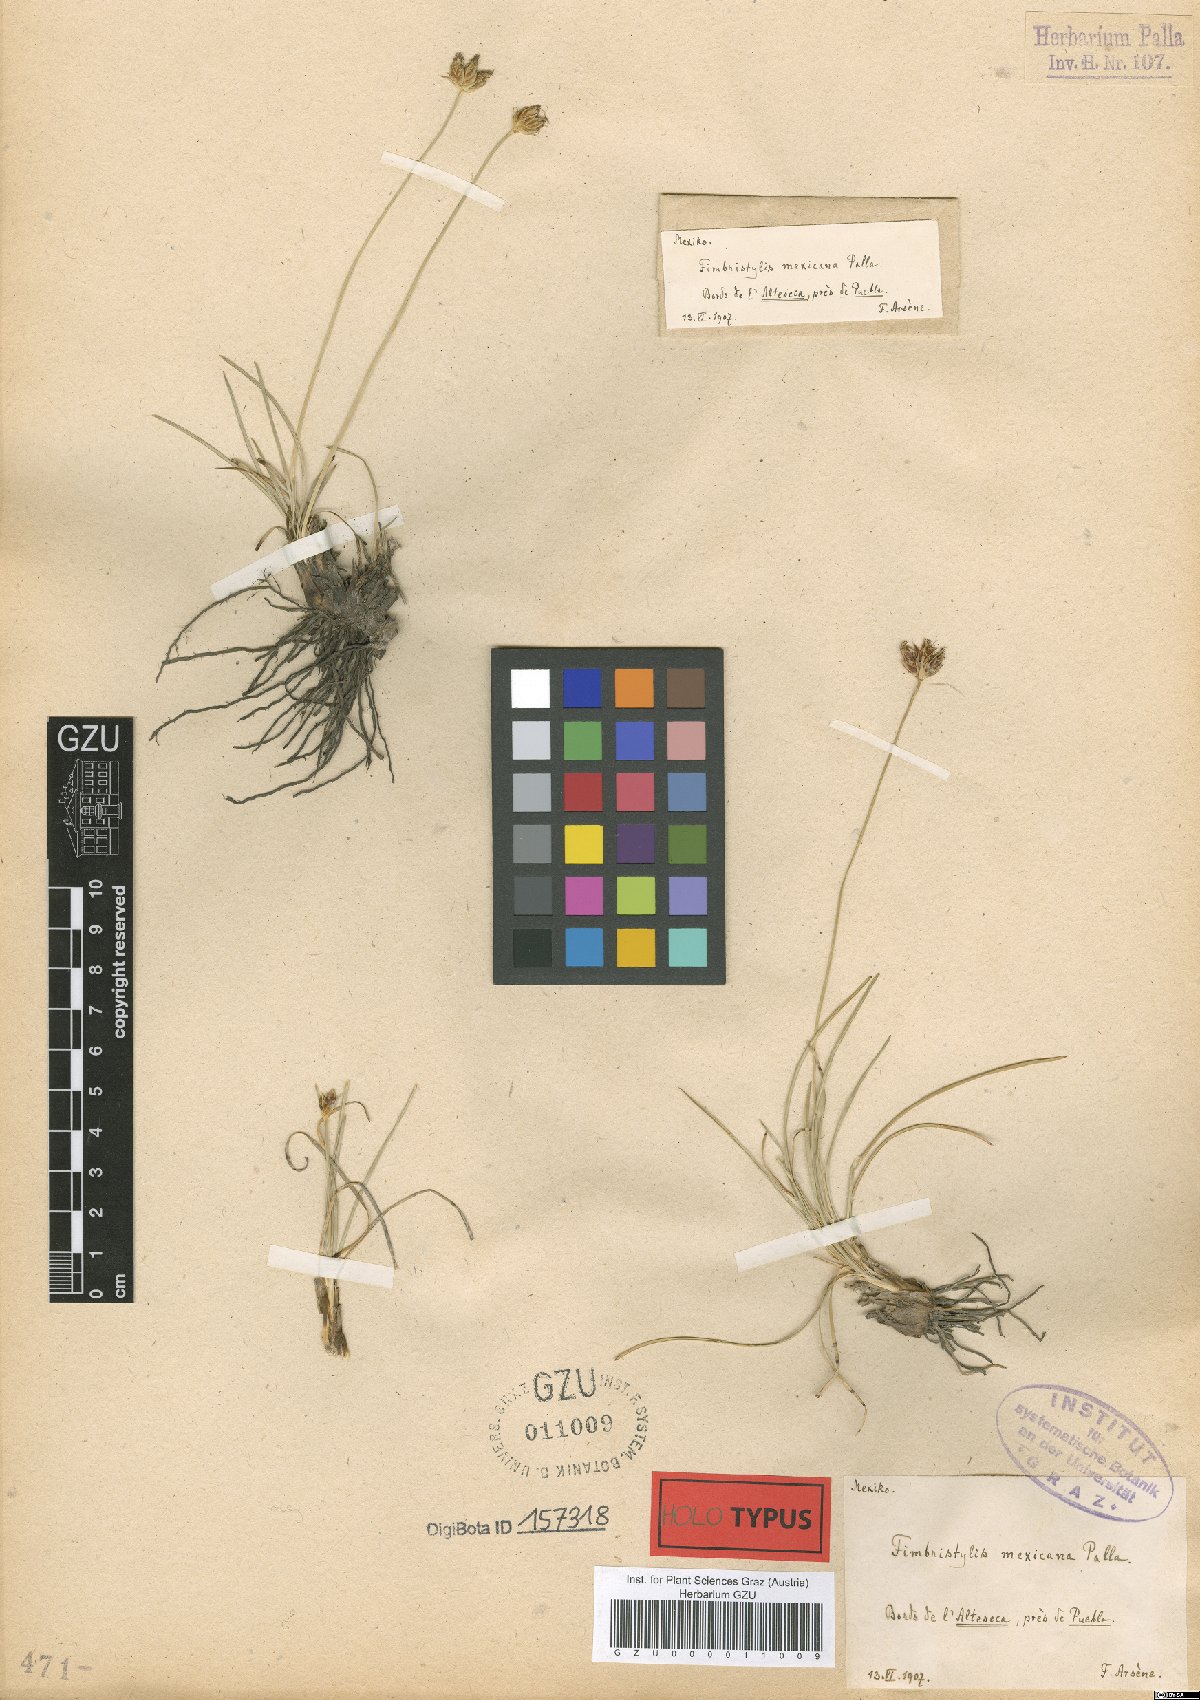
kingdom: Plantae
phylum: Tracheophyta
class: Liliopsida
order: Poales
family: Cyperaceae
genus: Abildgaardia
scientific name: Abildgaardia mexicana
